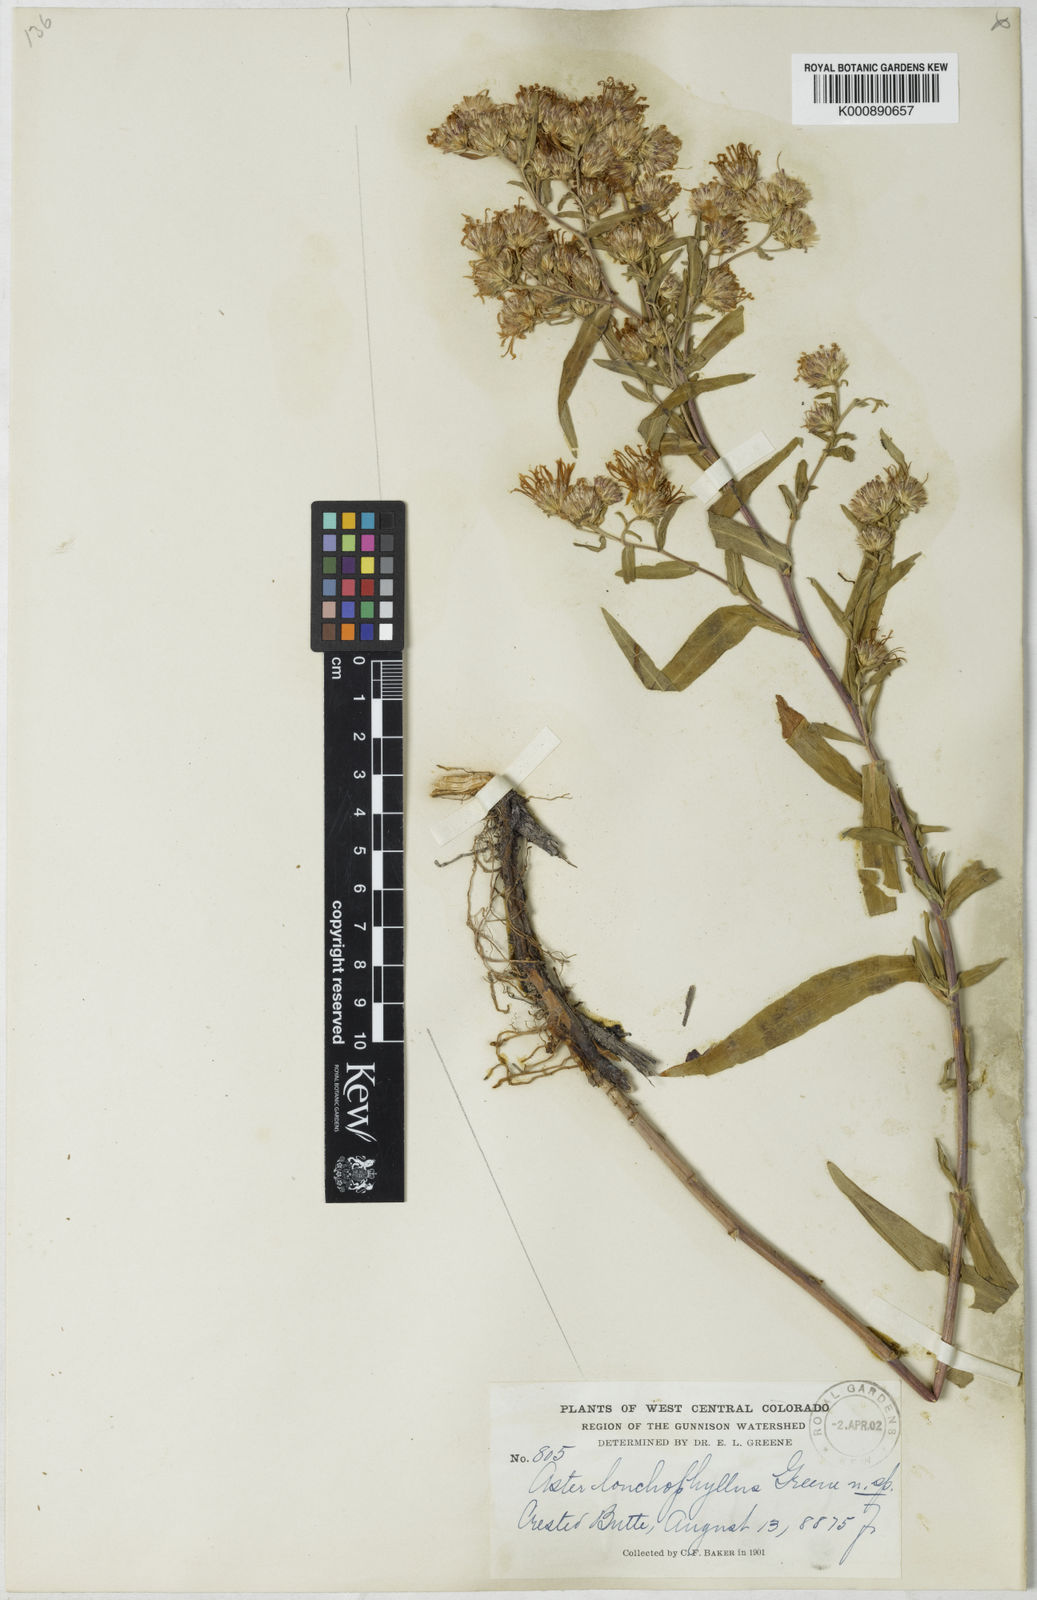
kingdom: Plantae
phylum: Tracheophyta
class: Magnoliopsida
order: Asterales
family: Asteraceae
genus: Symphyotrichum
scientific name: Symphyotrichum ascendens
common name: Intermountain aster
